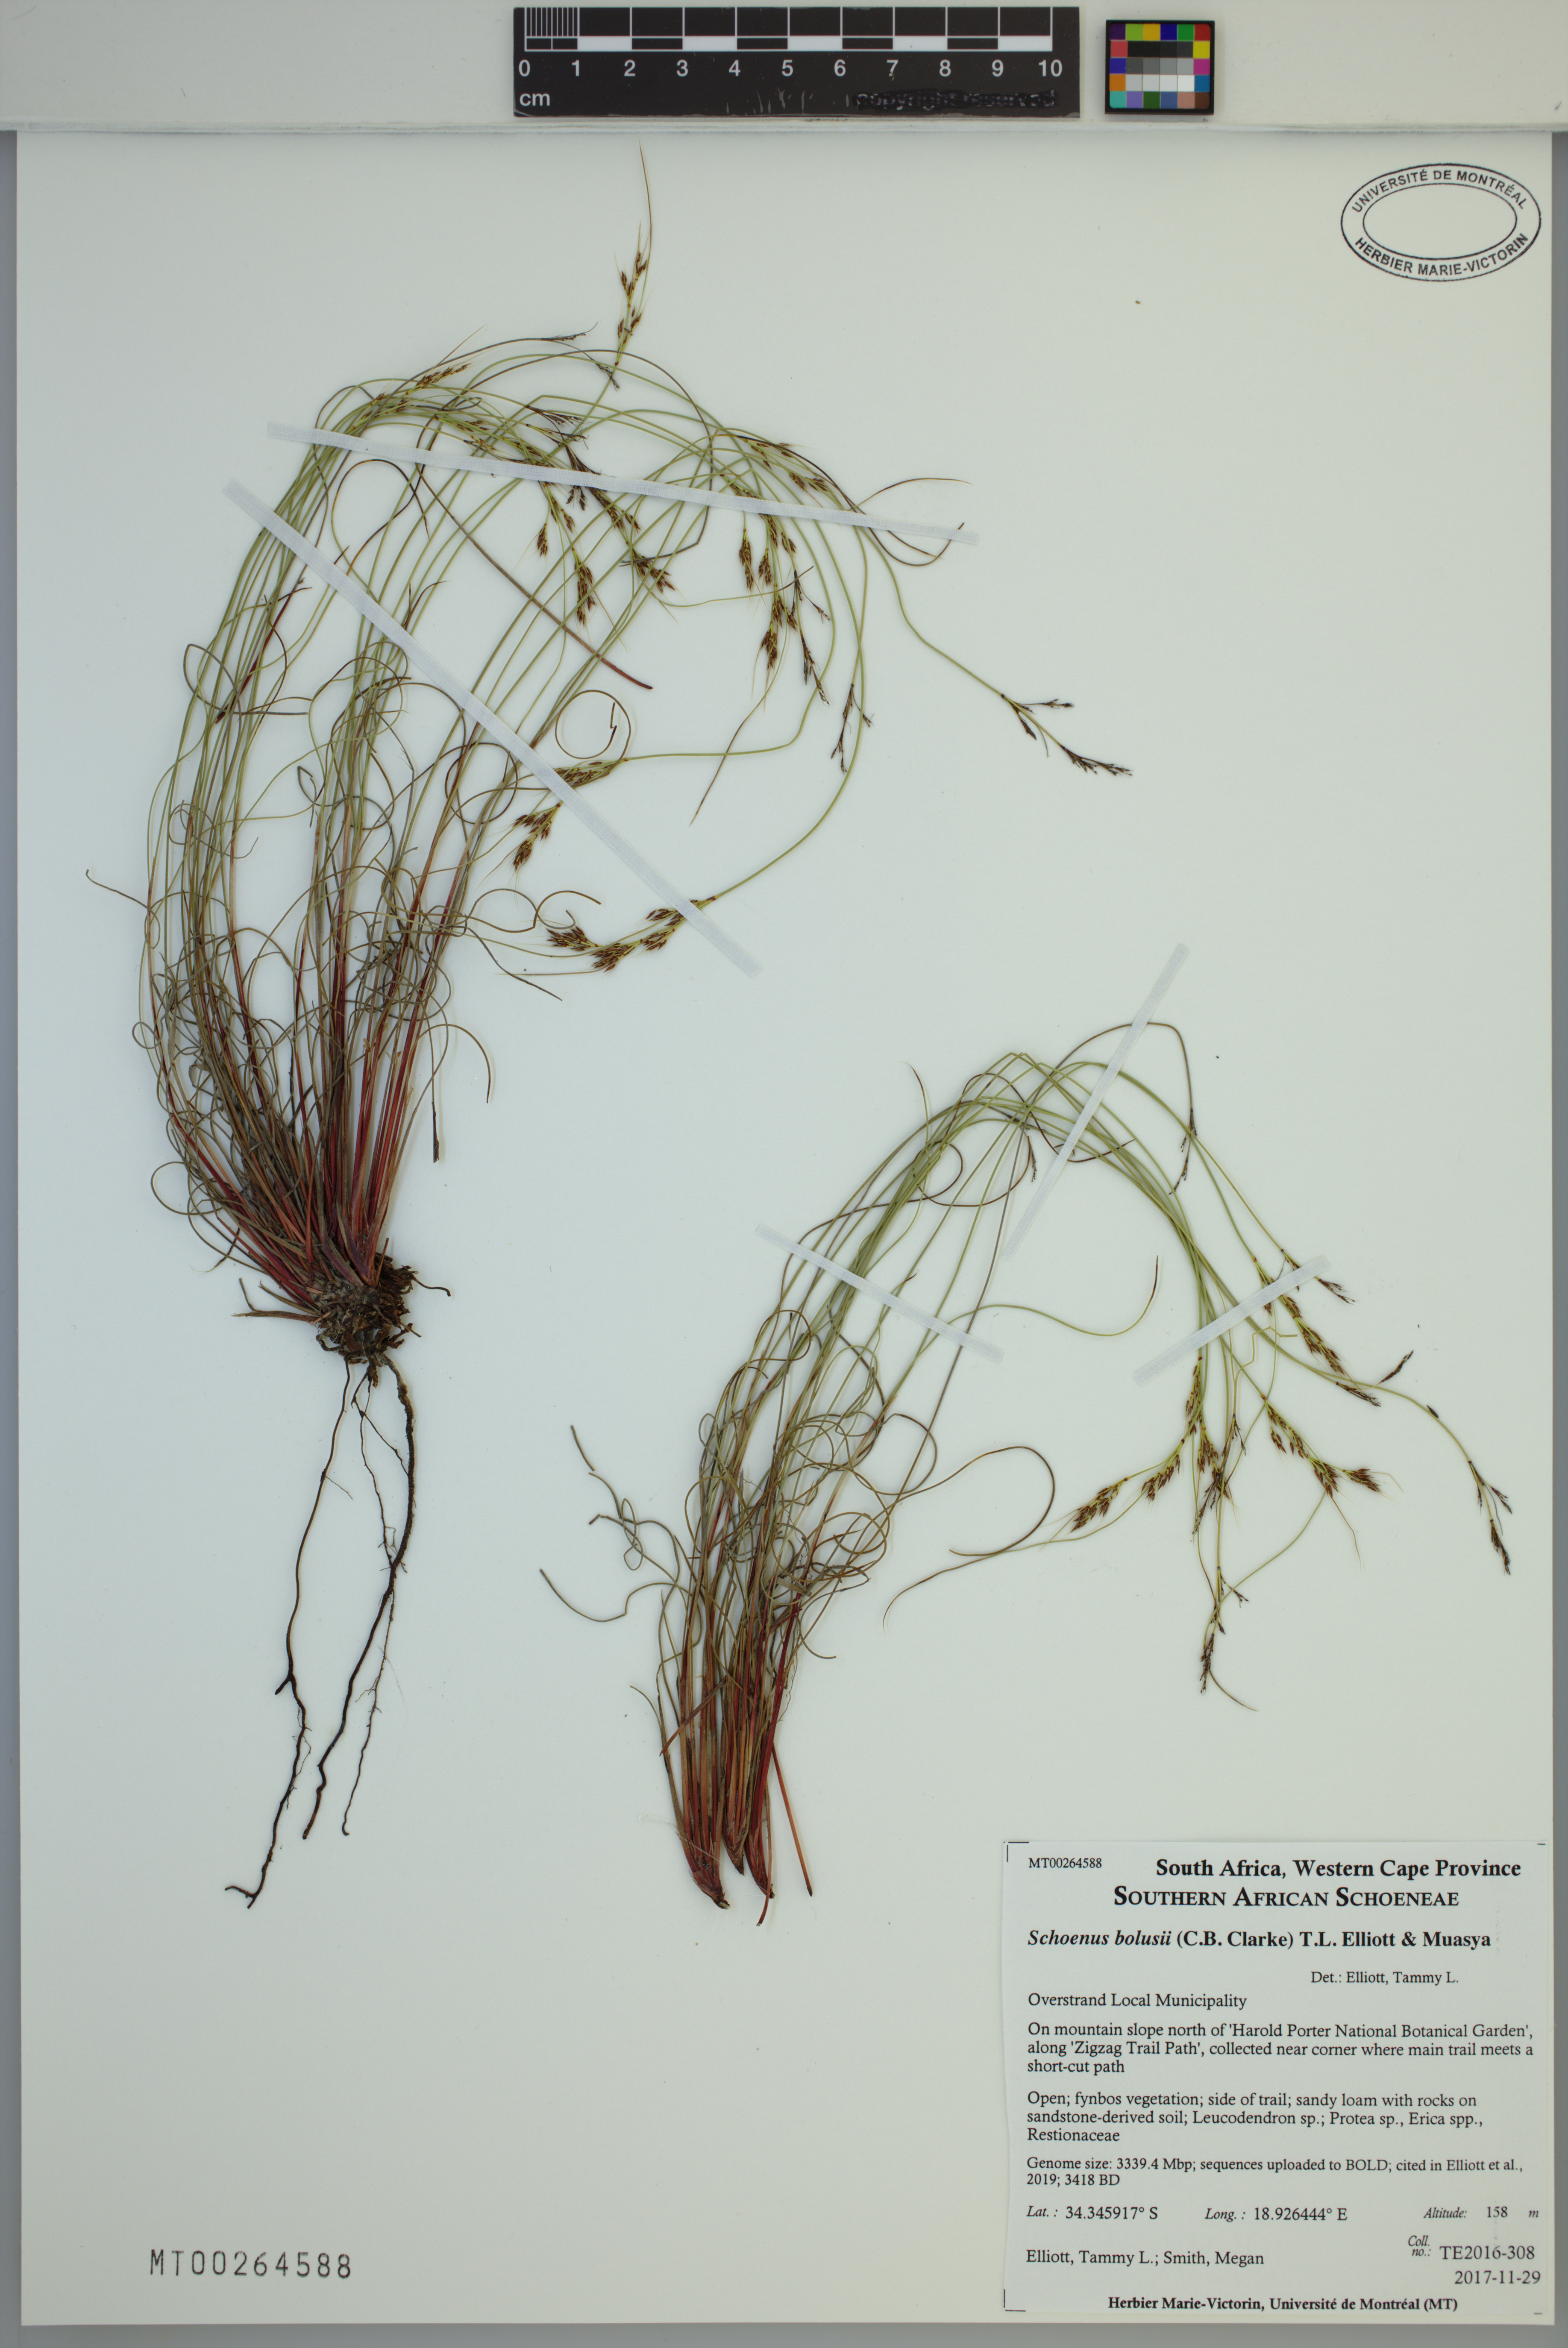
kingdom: Plantae
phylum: Tracheophyta
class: Liliopsida
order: Poales
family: Cyperaceae
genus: Schoenus
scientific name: Schoenus bolusii
